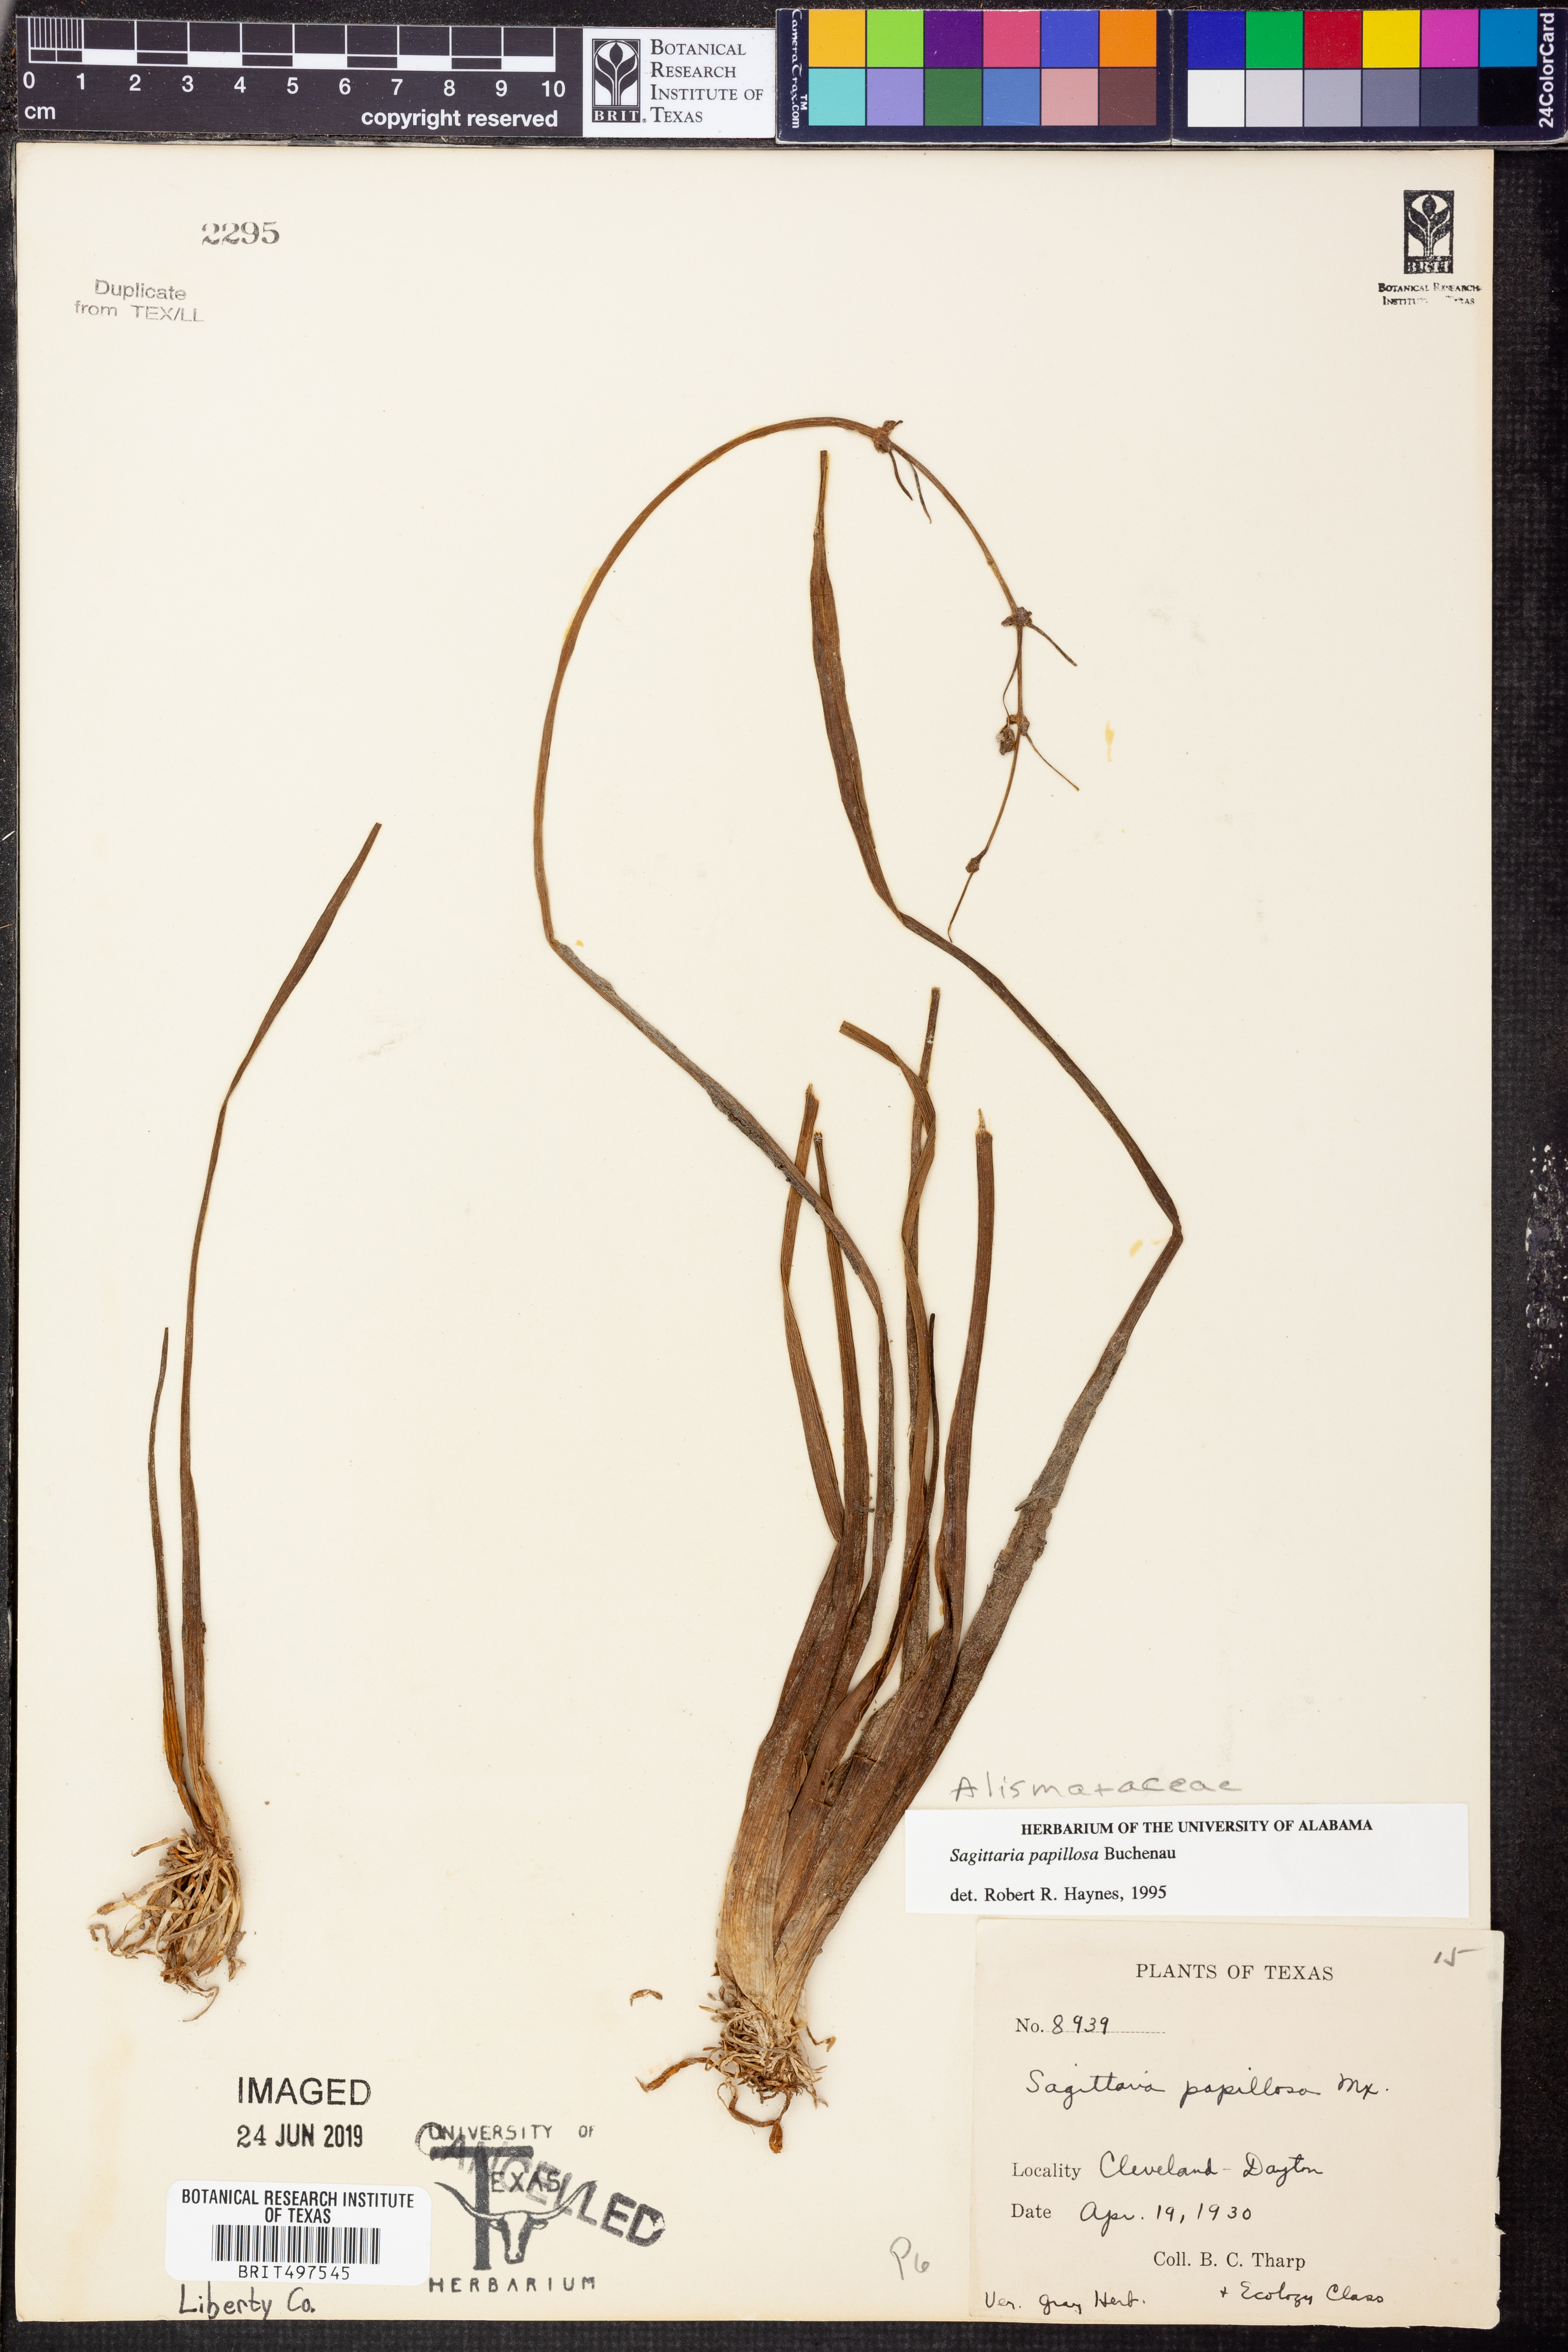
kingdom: Plantae
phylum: Tracheophyta
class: Liliopsida
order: Alismatales
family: Alismataceae
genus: Sagittaria
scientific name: Sagittaria papillosa
